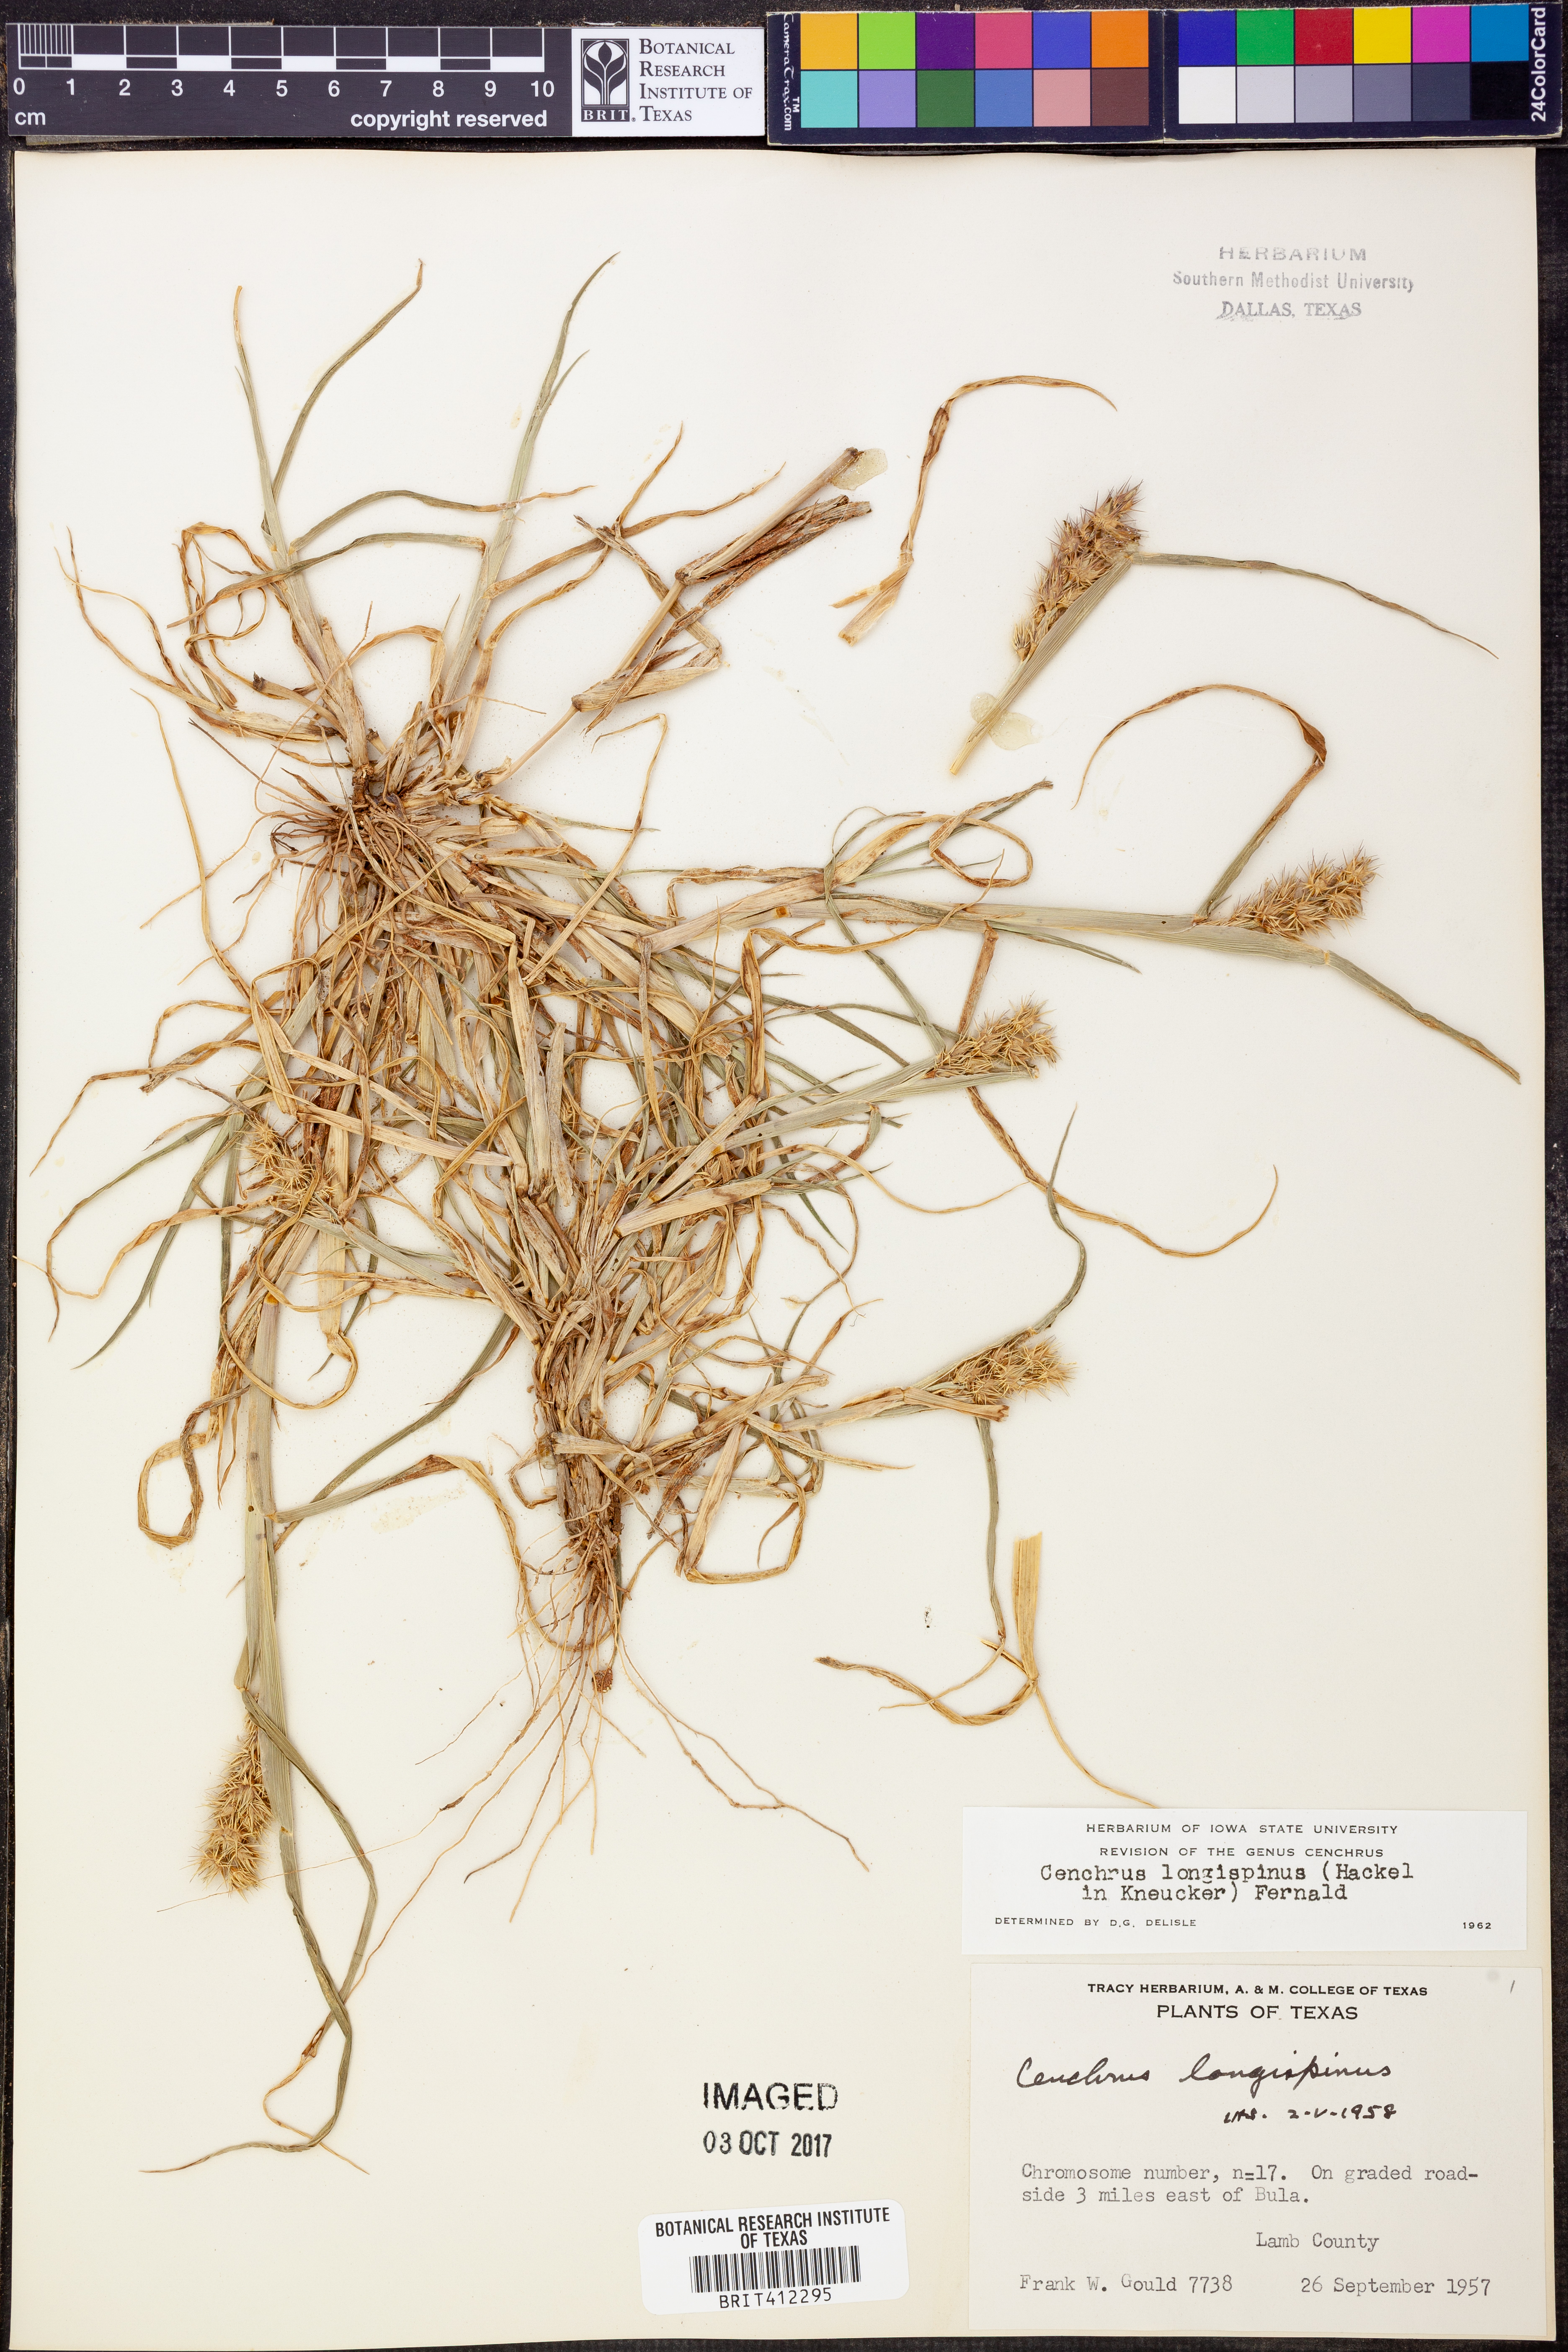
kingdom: Plantae
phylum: Tracheophyta
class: Liliopsida
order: Poales
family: Poaceae
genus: Cenchrus
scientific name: Cenchrus longispinus
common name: Mat sandbur
